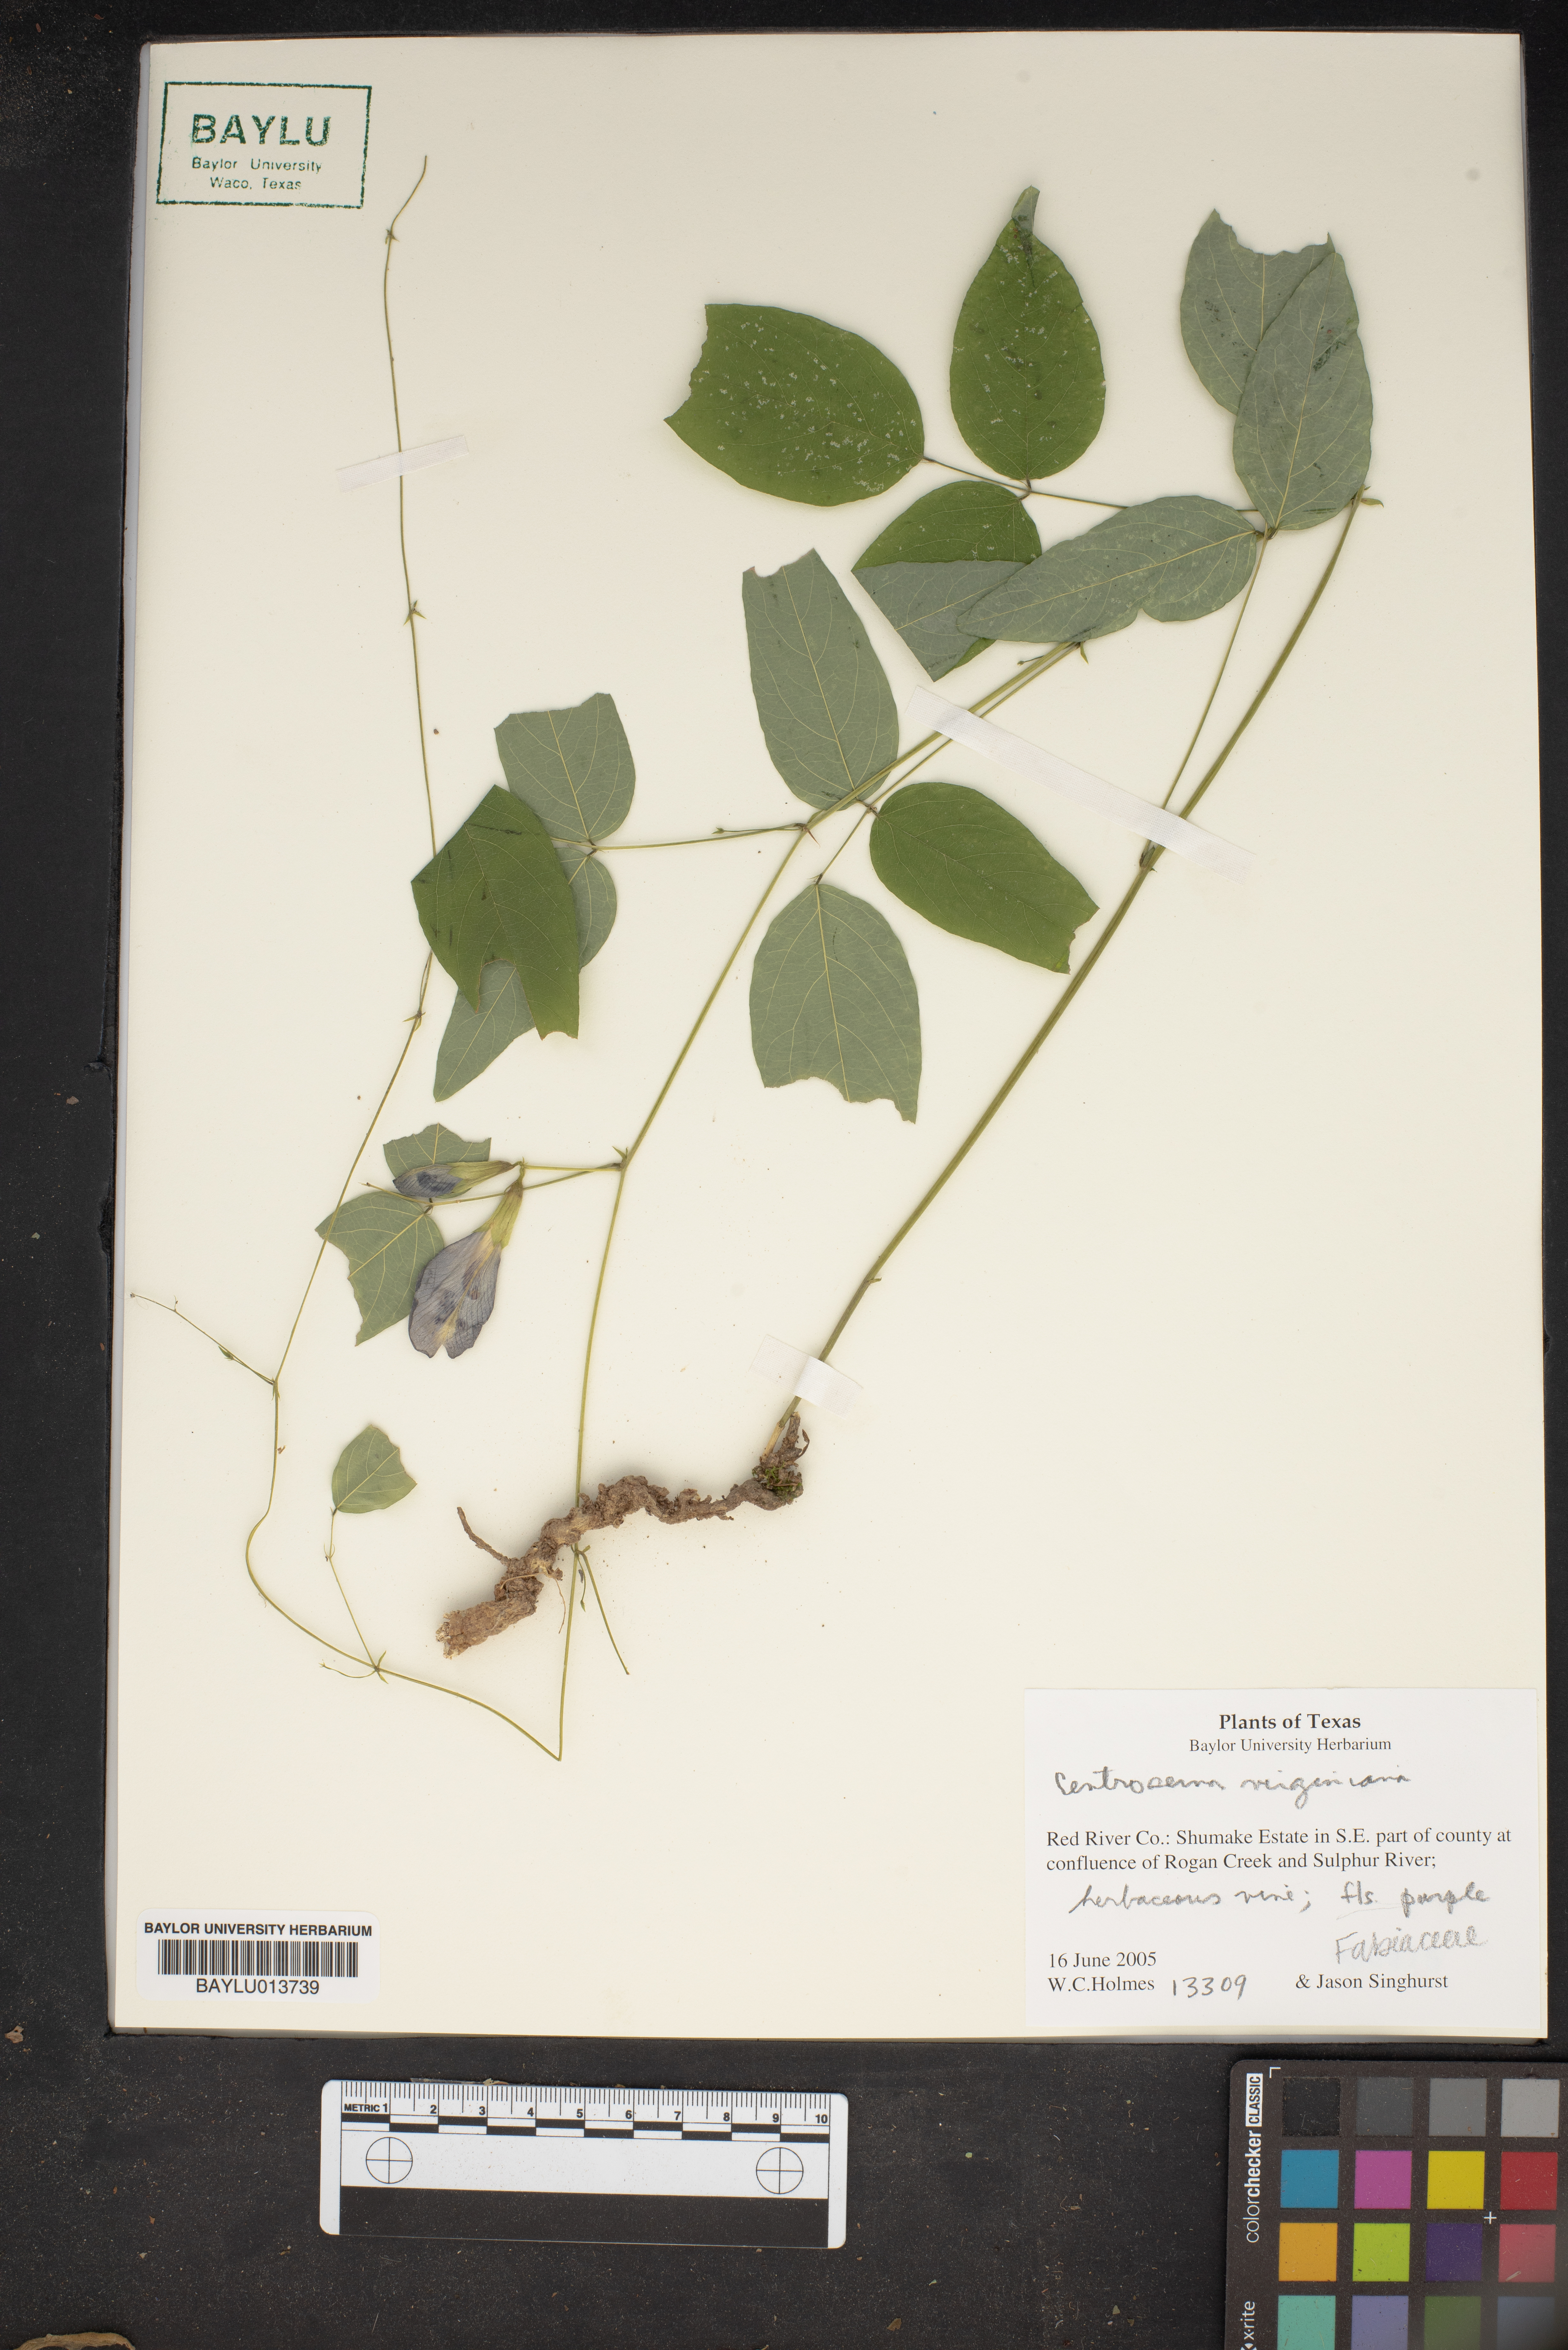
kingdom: Plantae
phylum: Tracheophyta
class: Magnoliopsida
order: Fabales
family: Fabaceae
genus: Centrosema
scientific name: Centrosema virginianum
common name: Butterfly-pea
